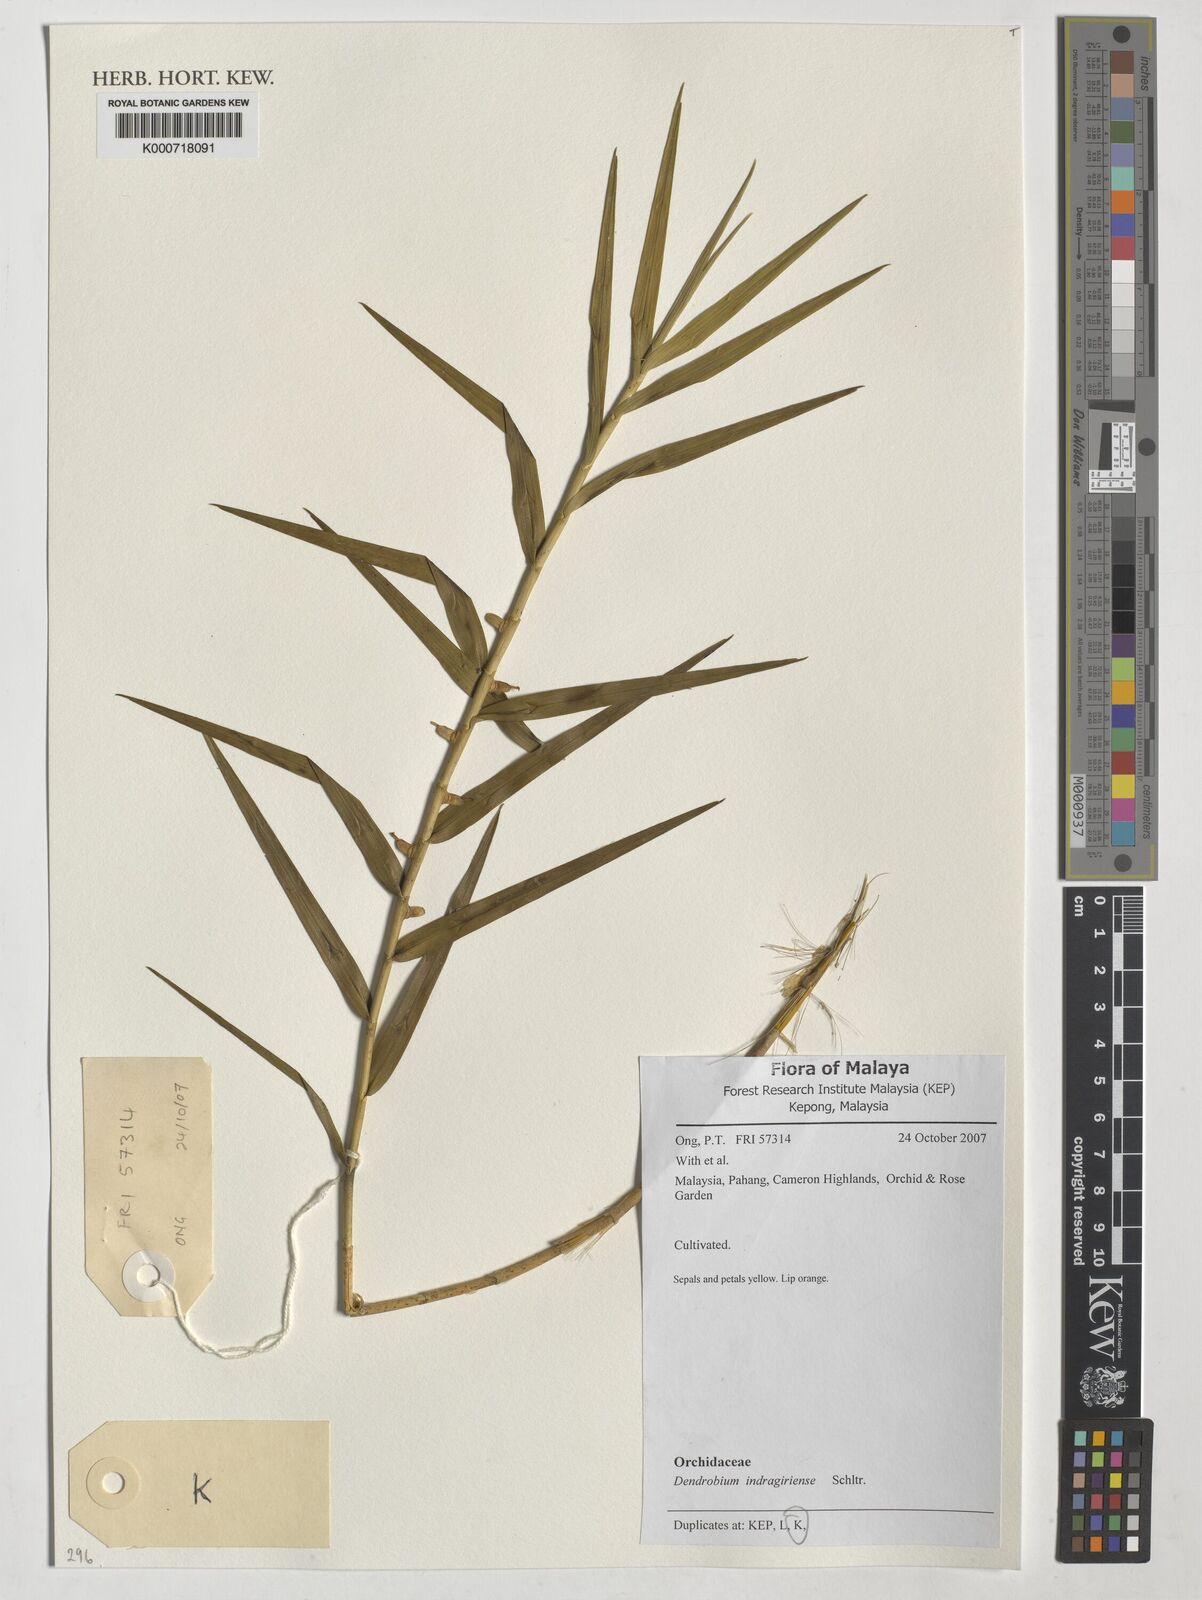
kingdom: Plantae
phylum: Tracheophyta
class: Liliopsida
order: Asparagales
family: Orchidaceae
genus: Dendrobium
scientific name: Dendrobium indragiriense
